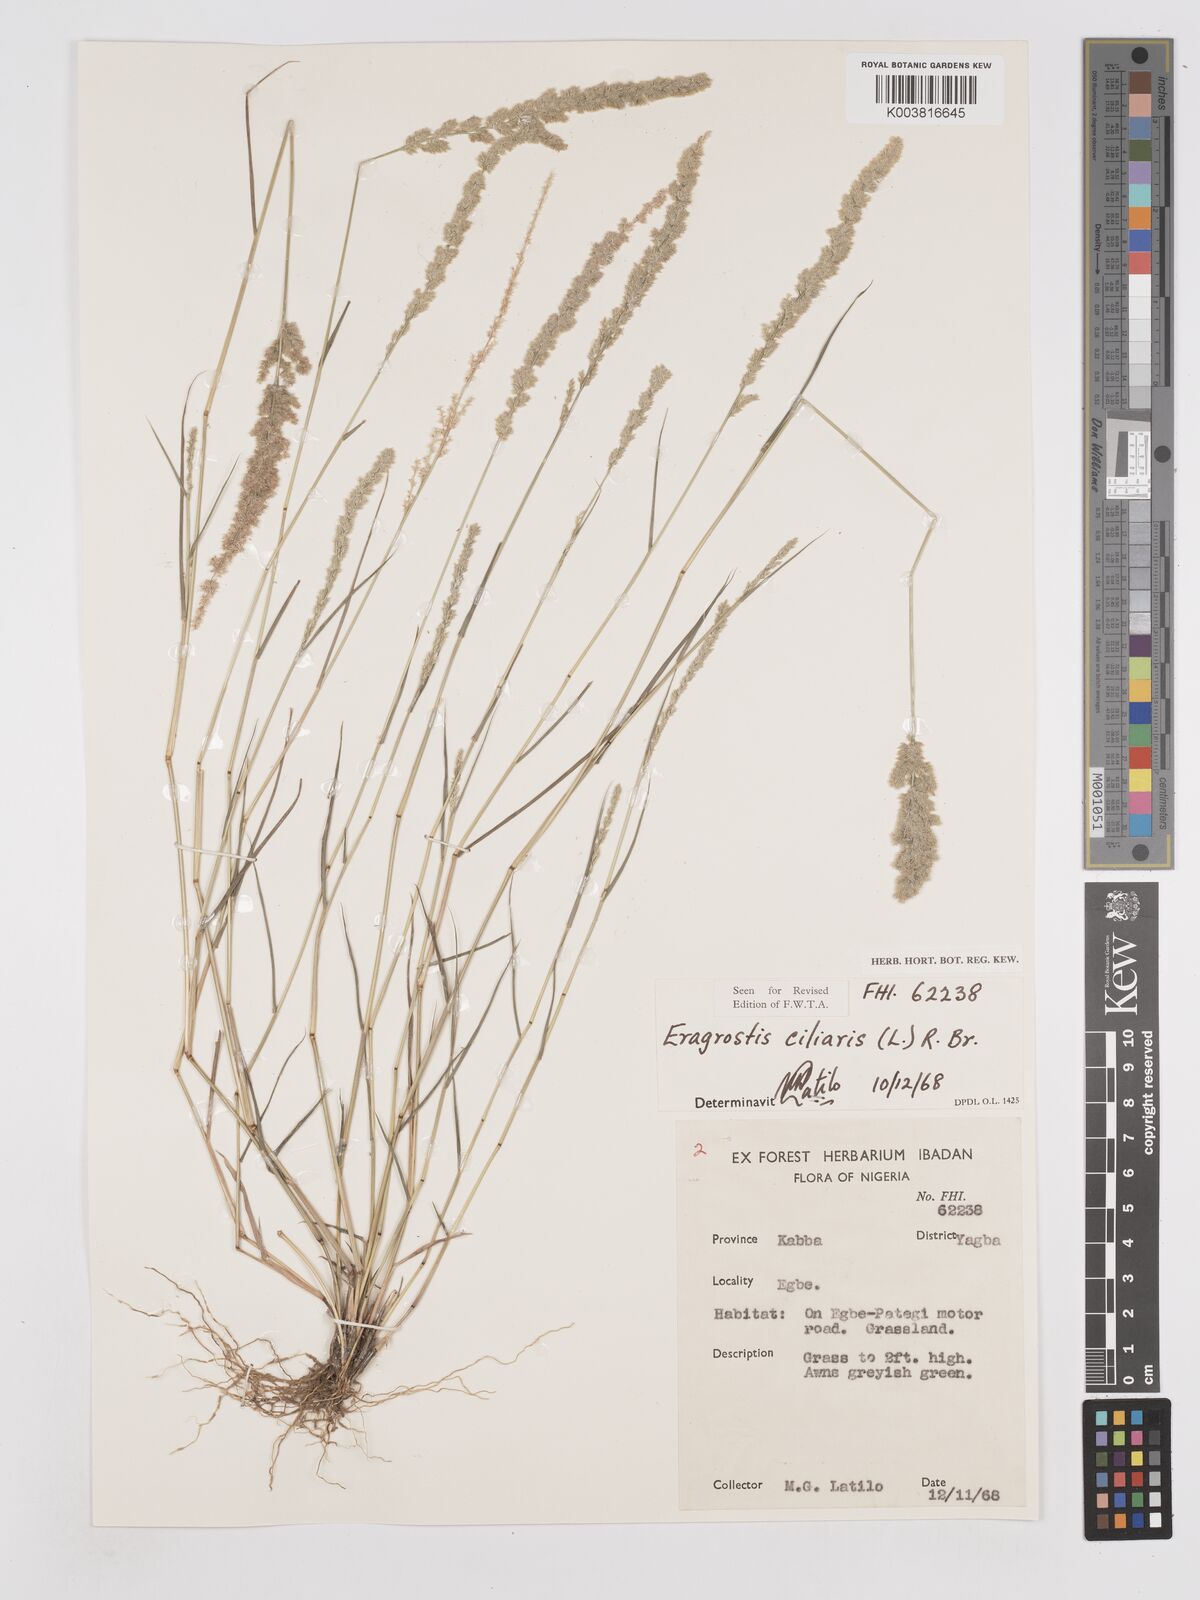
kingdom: Plantae
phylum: Tracheophyta
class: Liliopsida
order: Poales
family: Poaceae
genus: Eragrostis
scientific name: Eragrostis ciliaris
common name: Gophertail lovegrass
